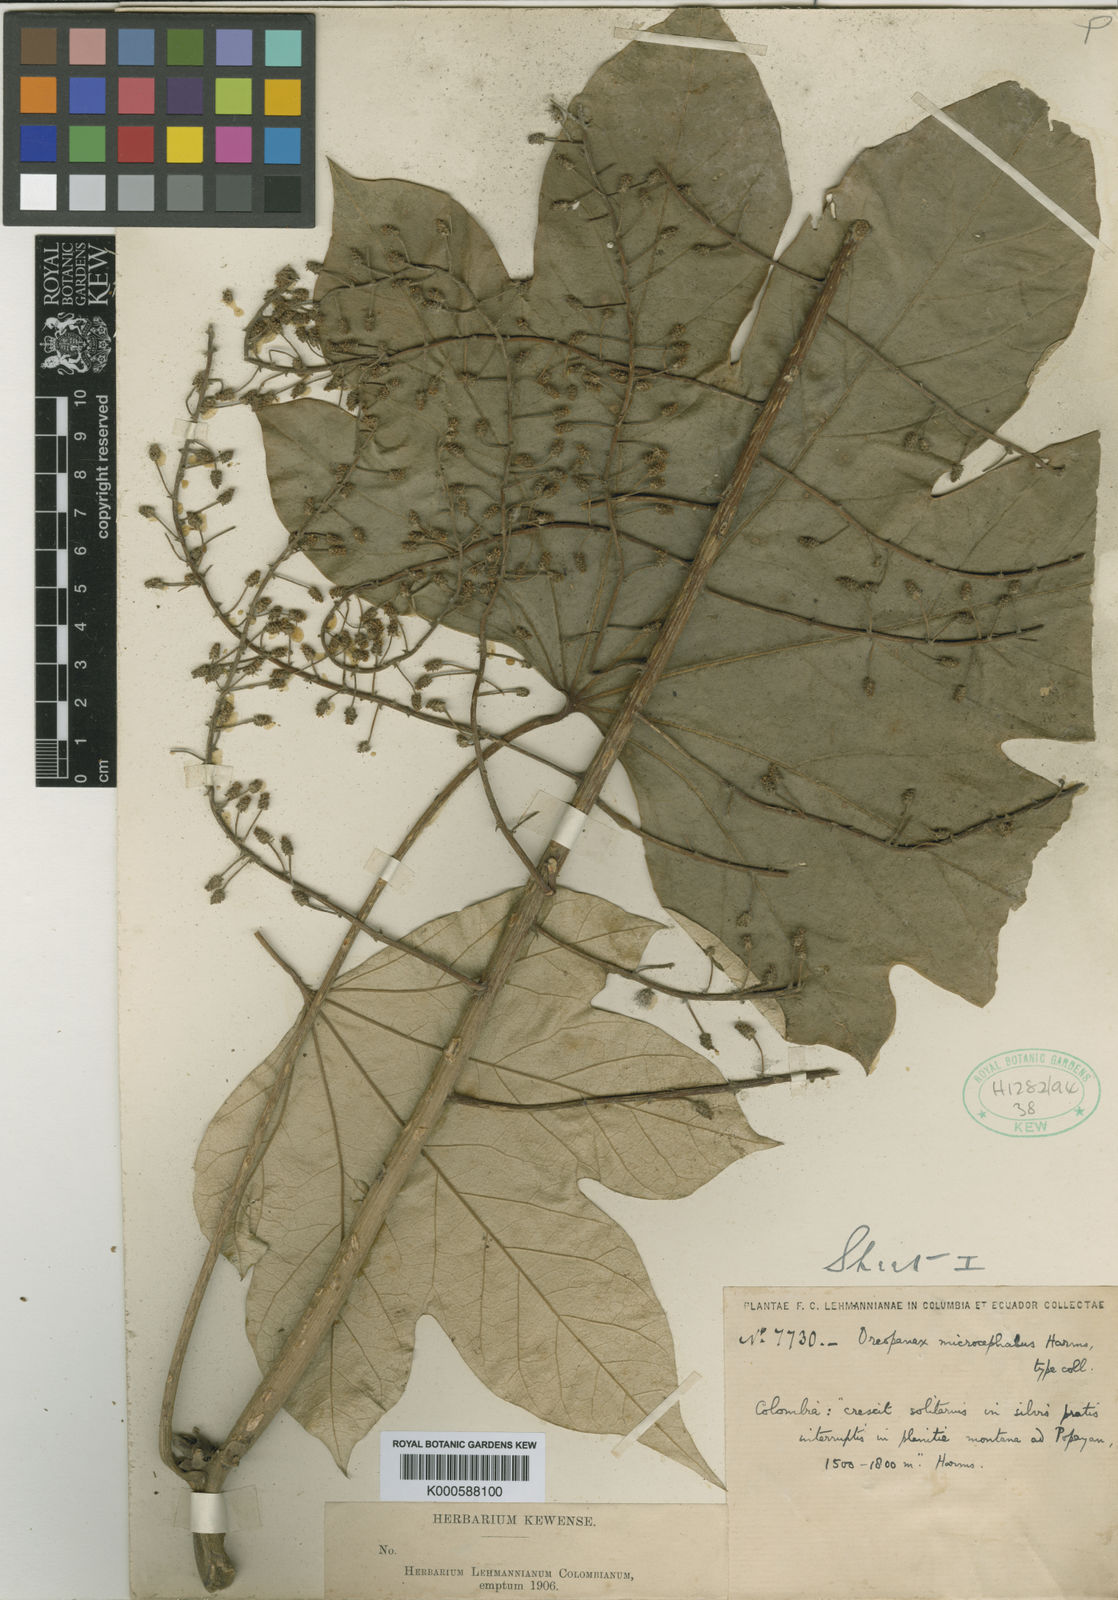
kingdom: Plantae
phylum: Tracheophyta
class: Magnoliopsida
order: Apiales
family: Araliaceae
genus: Oreopanax
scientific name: Oreopanax capitatus
